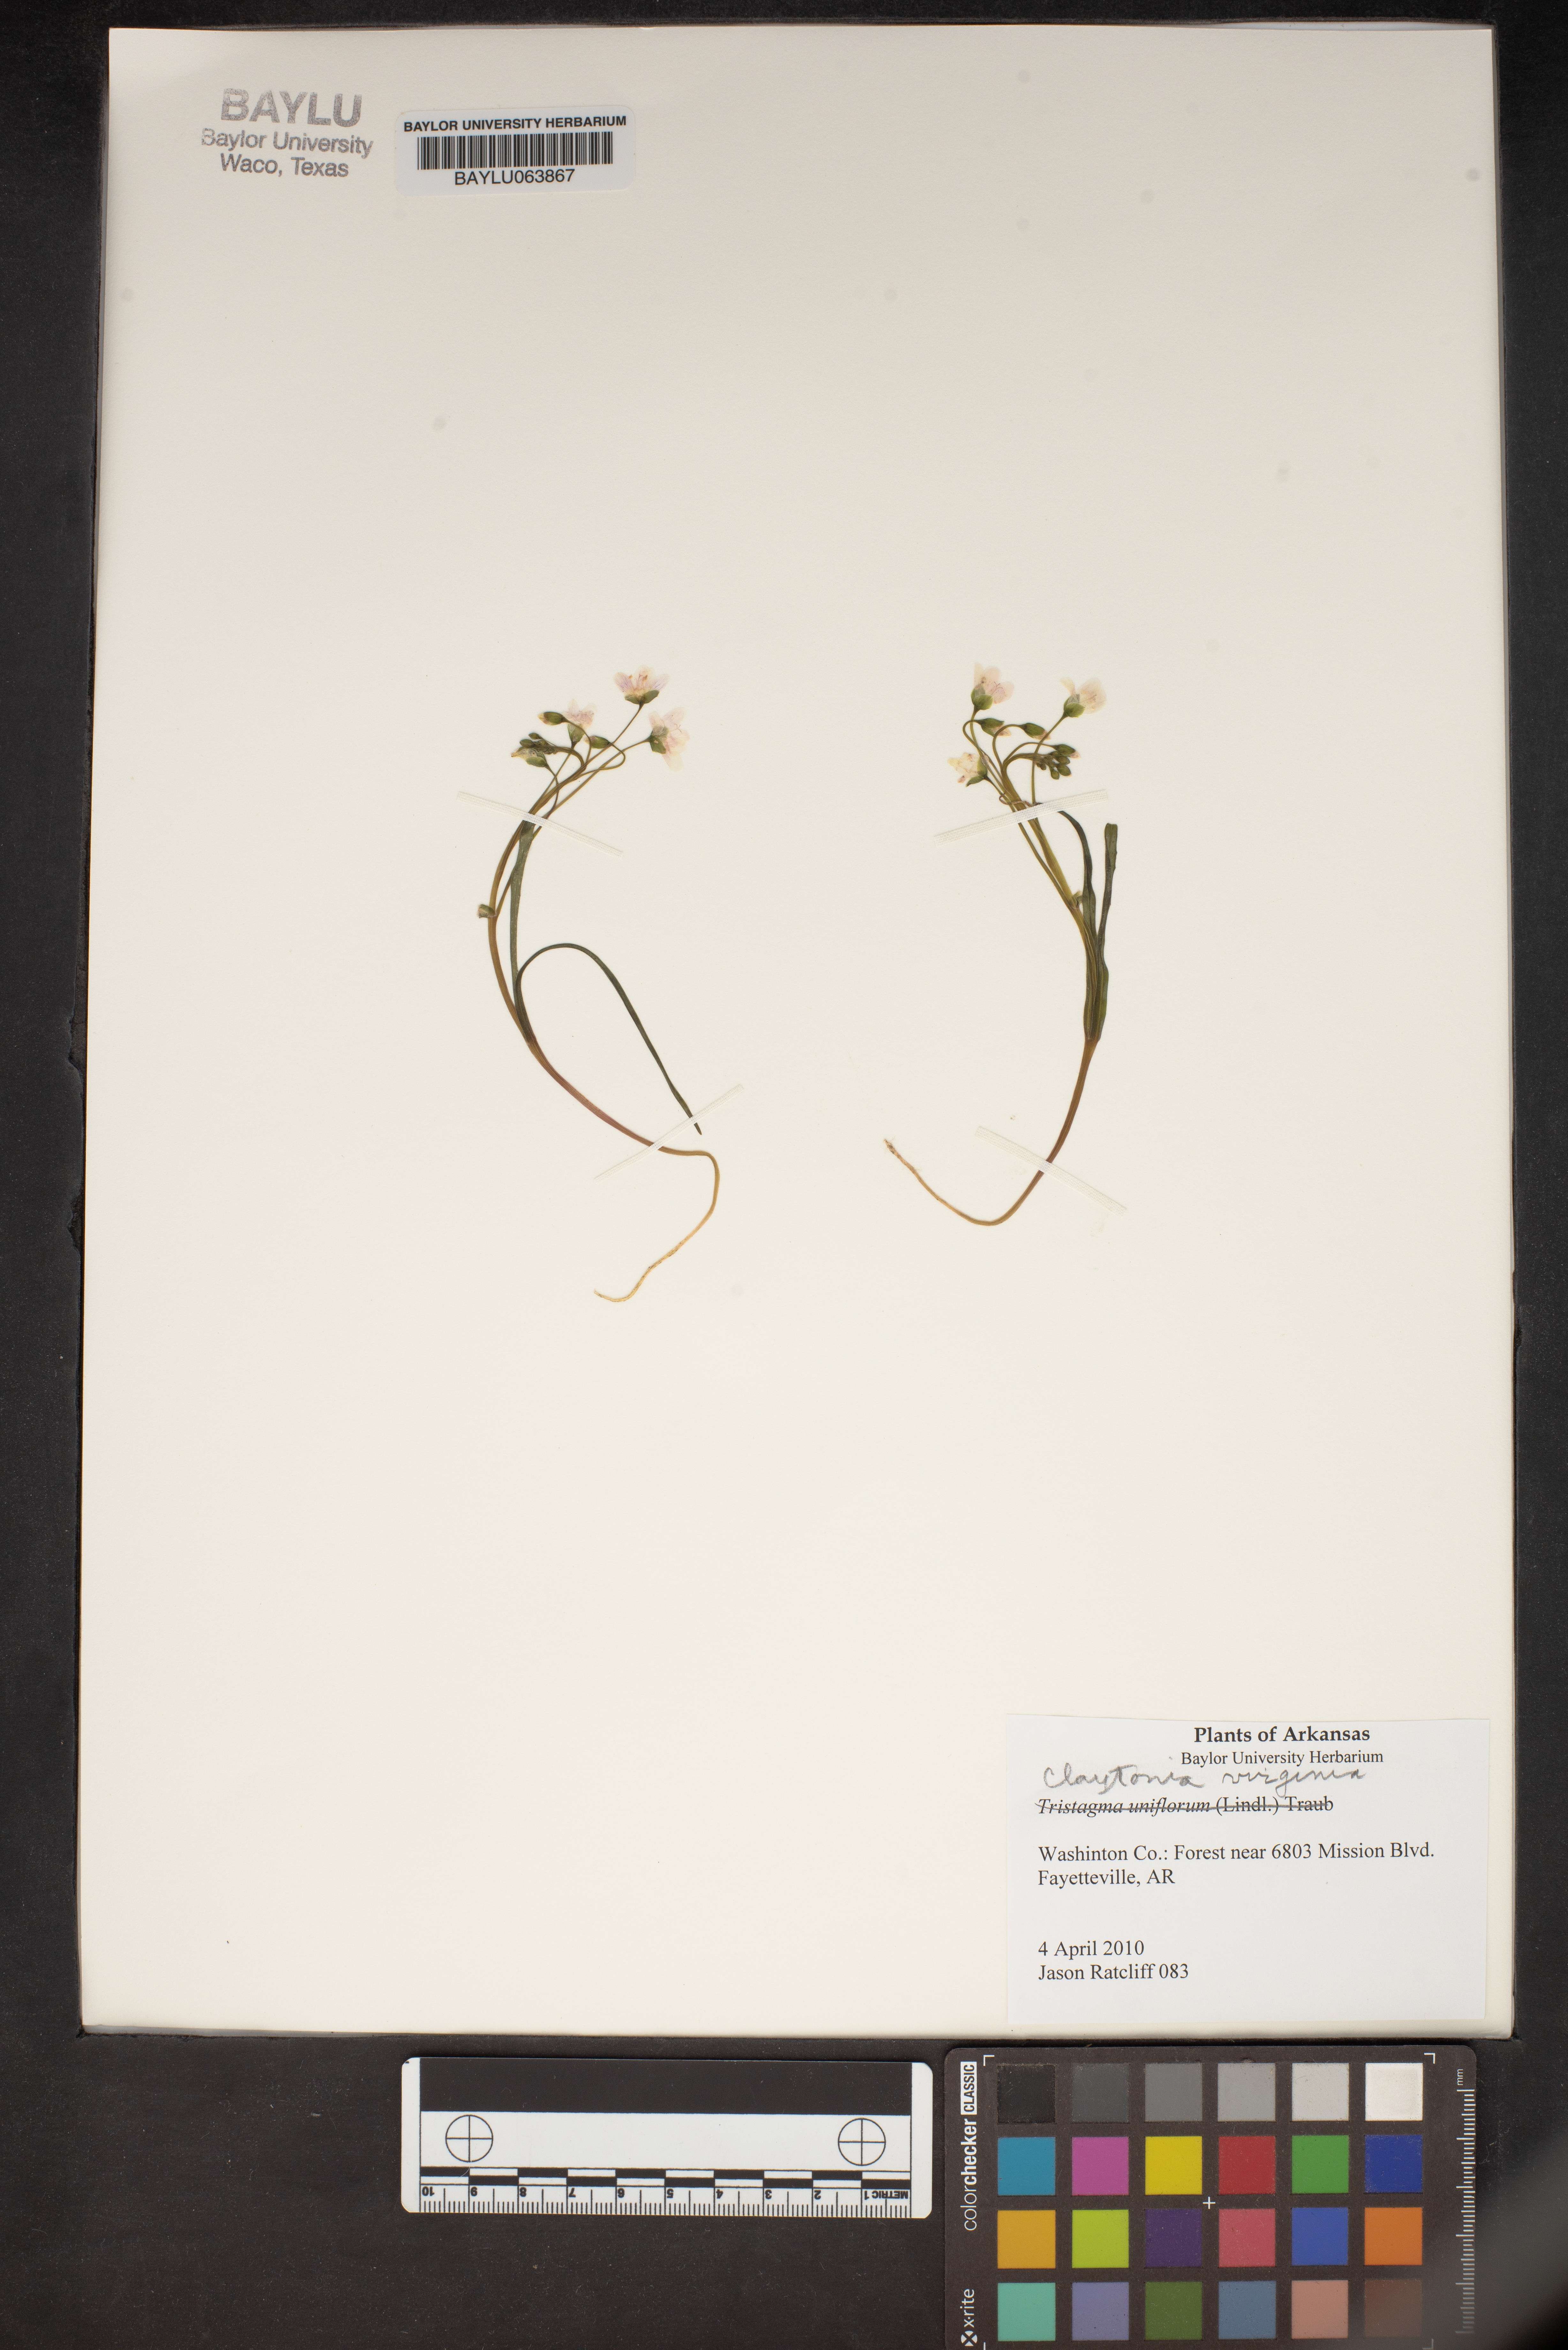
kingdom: Plantae
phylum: Tracheophyta
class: Magnoliopsida
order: Caryophyllales
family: Montiaceae
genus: Claytonia
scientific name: Claytonia virginica
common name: Virginia springbeauty
